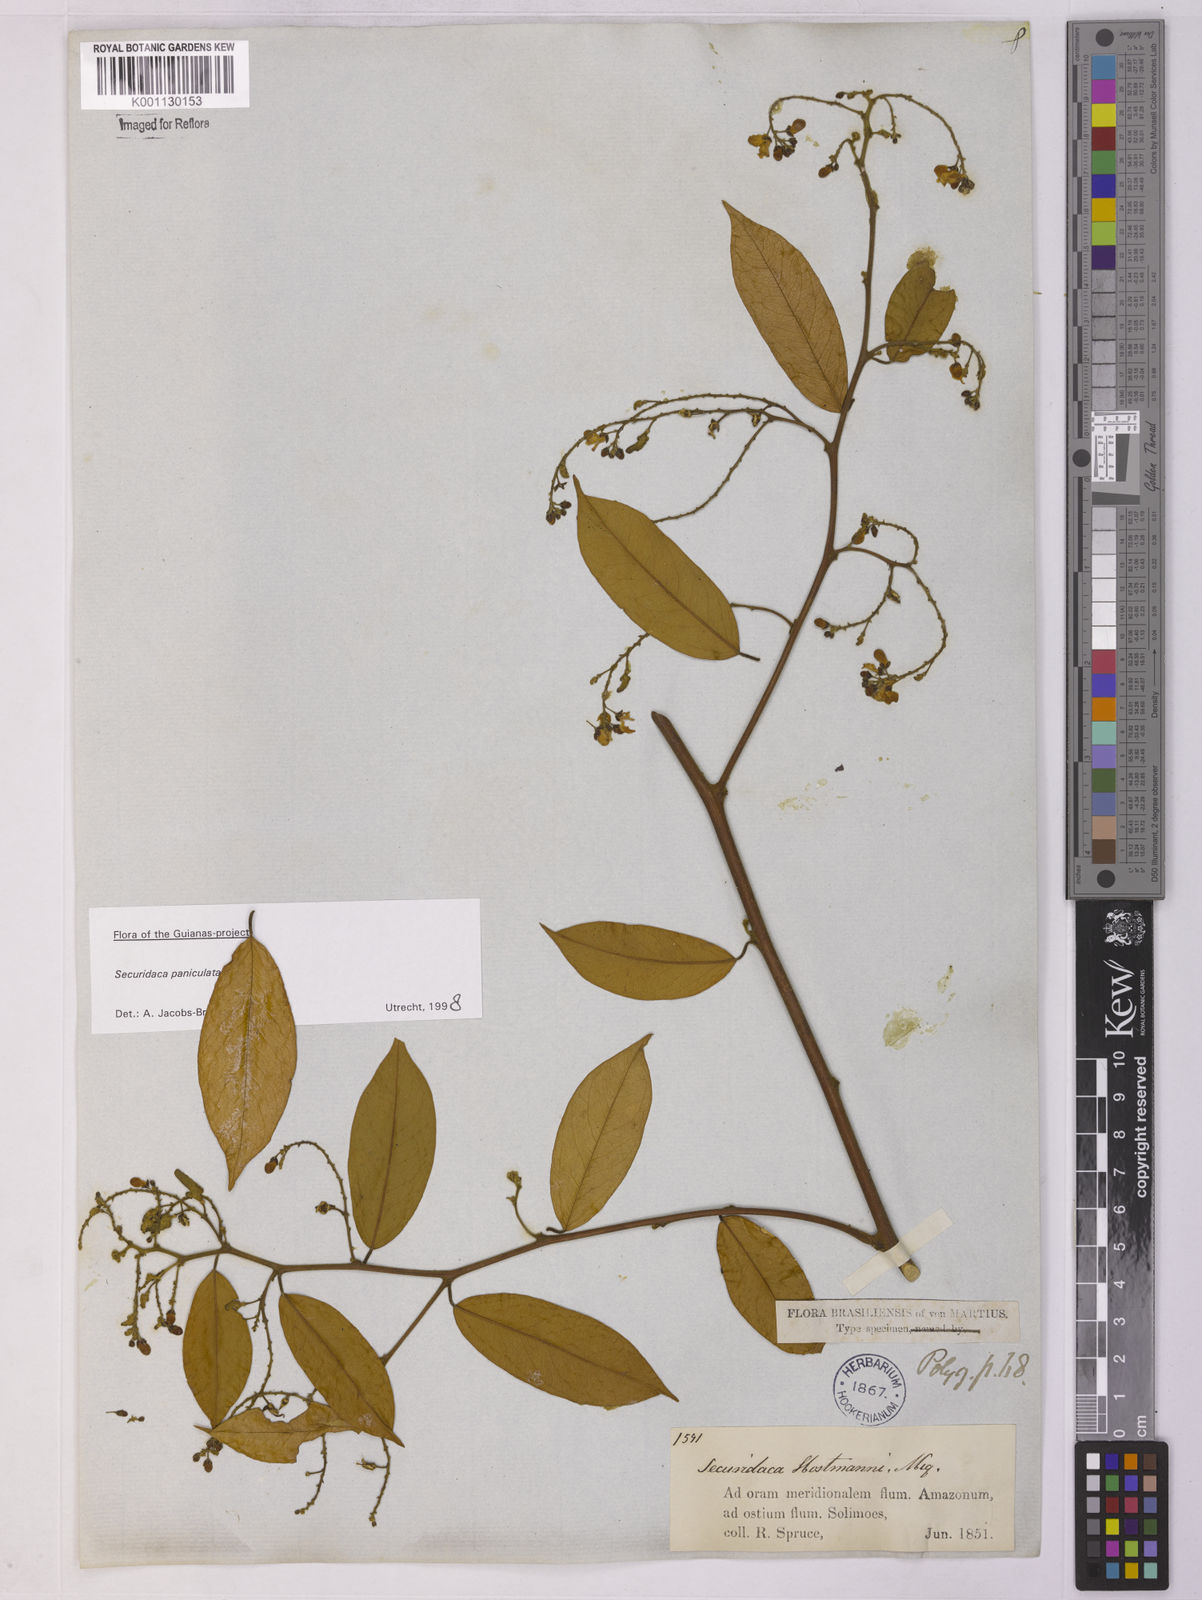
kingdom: Plantae
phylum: Tracheophyta
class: Magnoliopsida
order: Fabales
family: Polygalaceae
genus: Securidaca
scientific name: Securidaca paniculata
